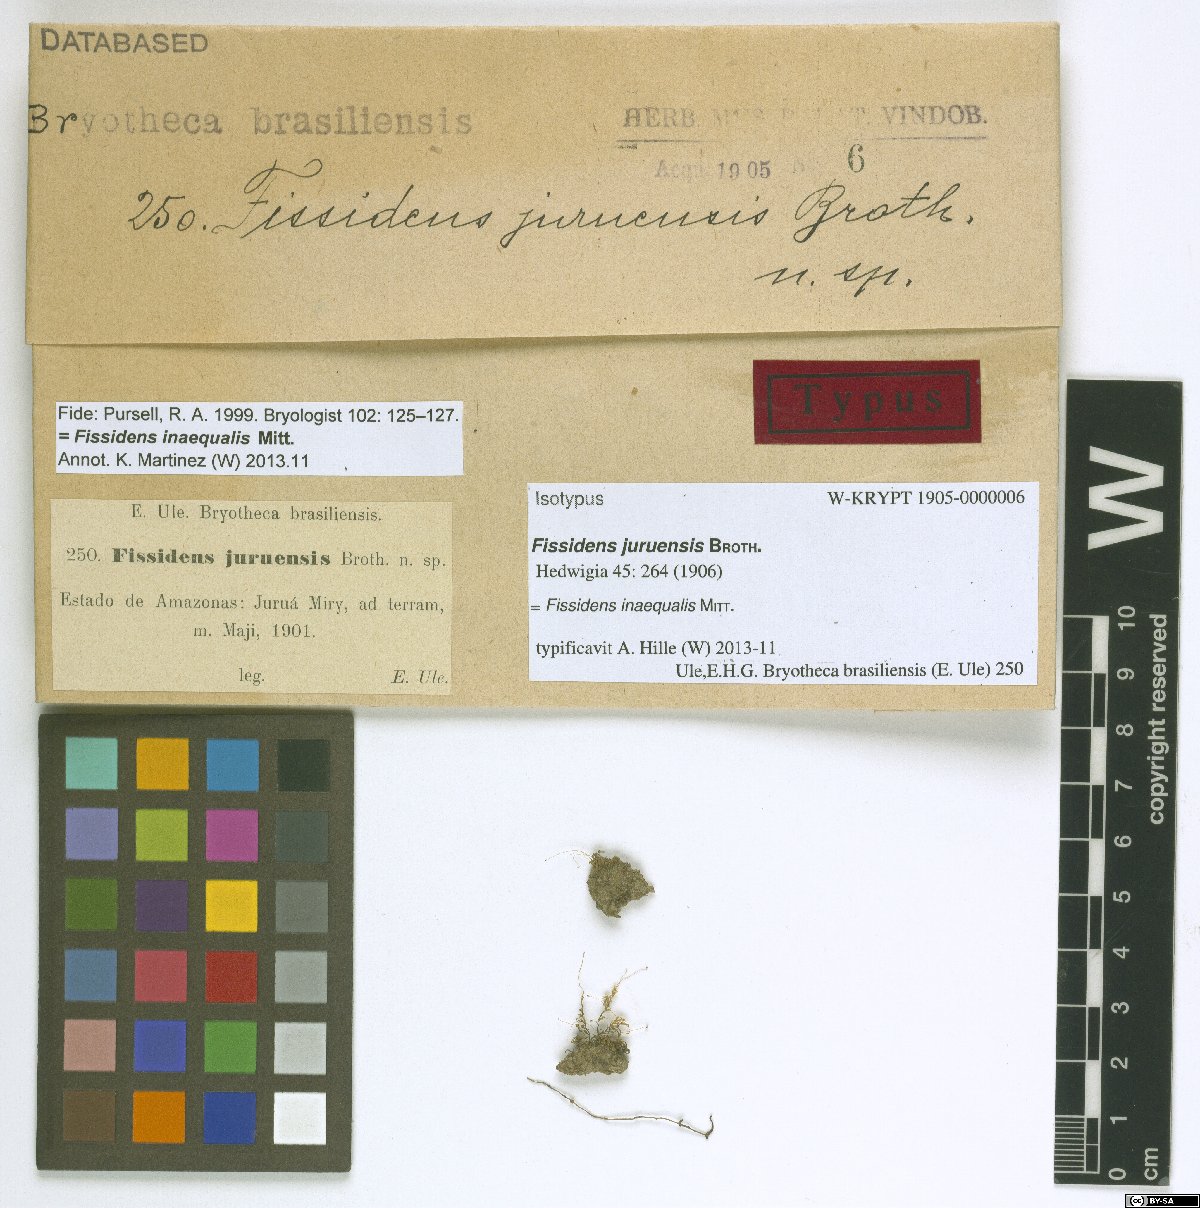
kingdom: Plantae
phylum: Bryophyta
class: Bryopsida
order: Dicranales
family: Fissidentaceae
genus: Fissidens
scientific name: Fissidens juruensis
